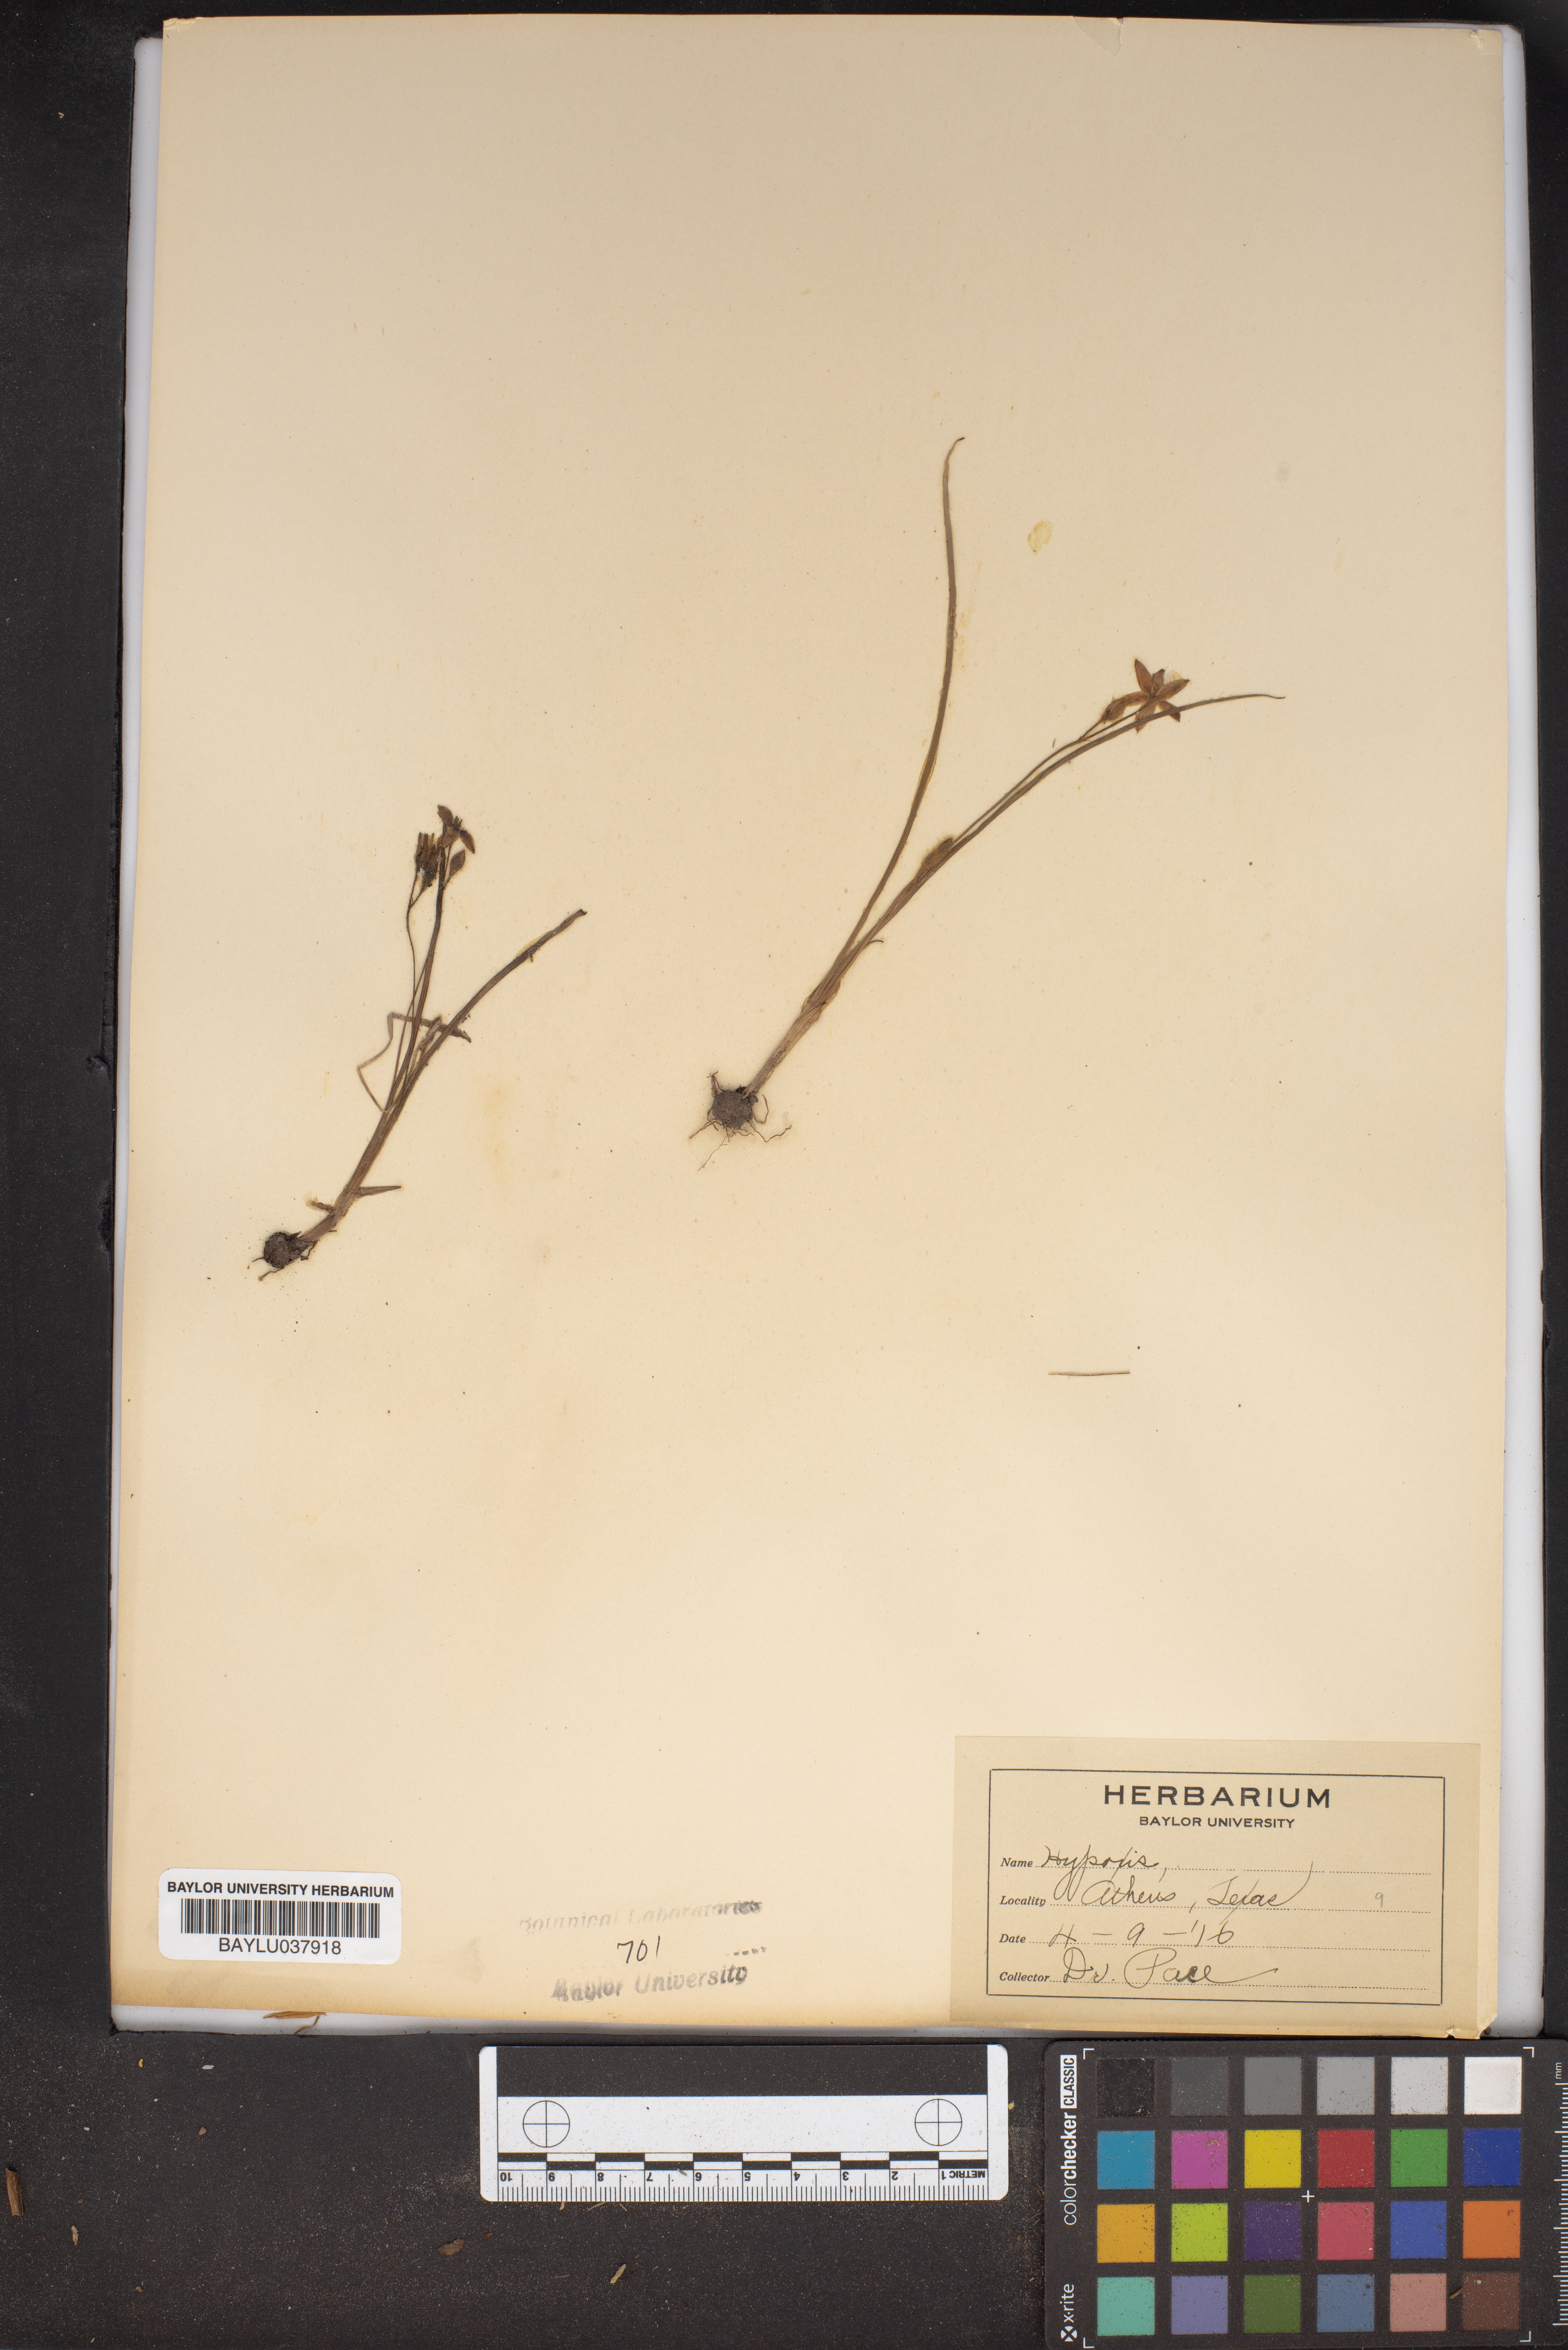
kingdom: Plantae
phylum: Tracheophyta
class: Liliopsida
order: Asparagales
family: Hypoxidaceae
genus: Hypoxis
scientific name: Hypoxis
